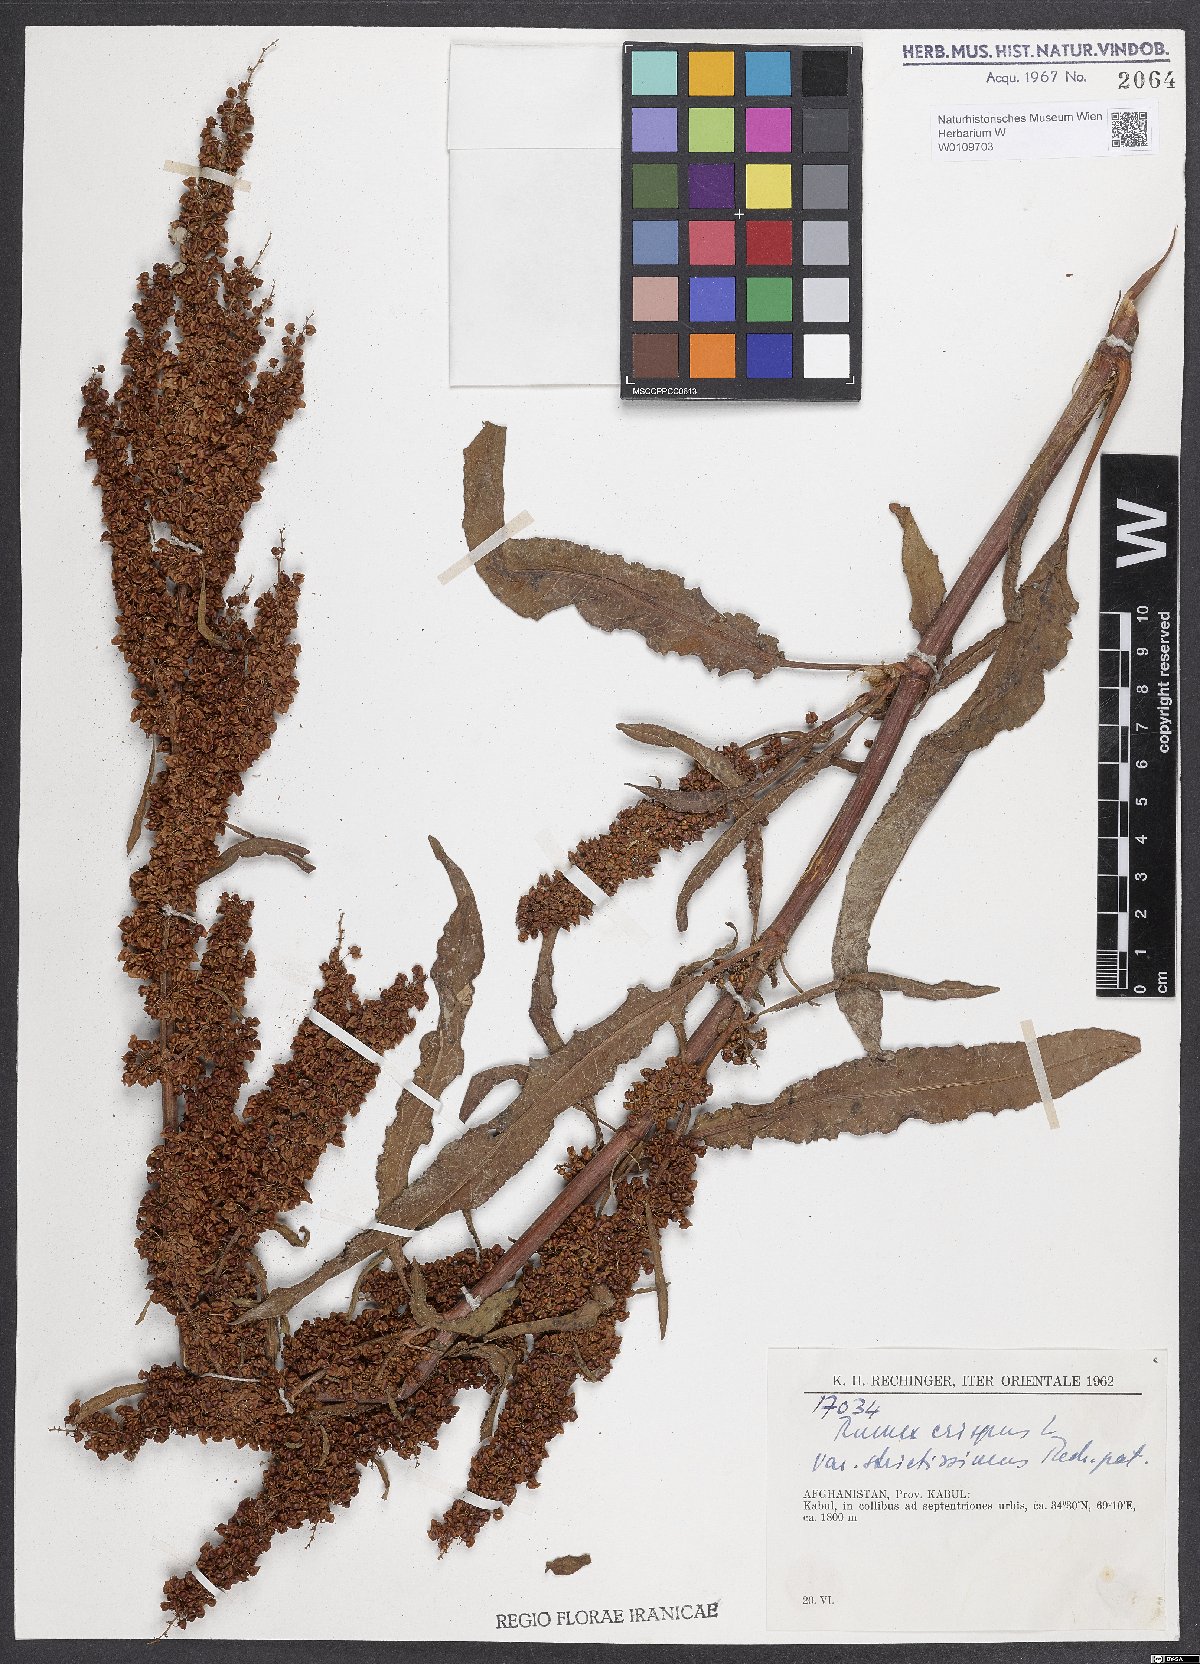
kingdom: Plantae
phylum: Tracheophyta
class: Magnoliopsida
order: Caryophyllales
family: Polygonaceae
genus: Rumex
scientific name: Rumex crispus
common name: Curled dock
